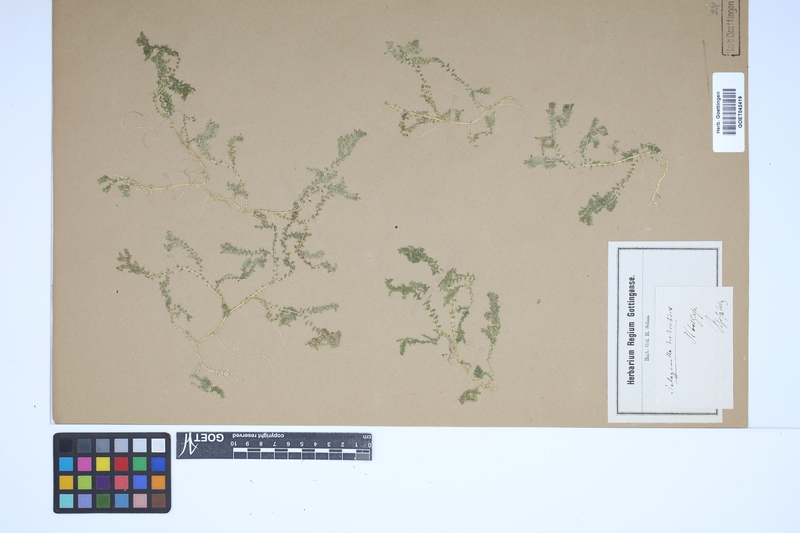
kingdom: Plantae
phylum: Tracheophyta
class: Lycopodiopsida
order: Selaginellales
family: Selaginellaceae
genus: Selaginella
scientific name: Selaginella helvetica
